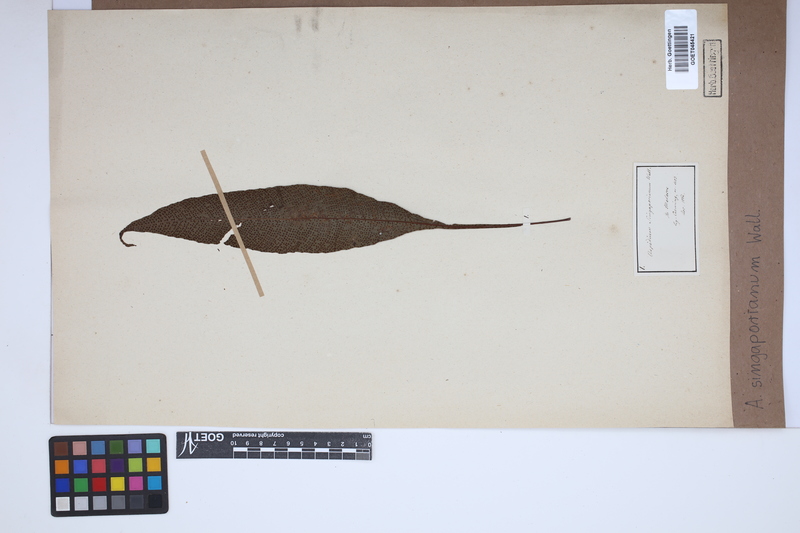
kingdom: Plantae
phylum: Tracheophyta
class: Polypodiopsida
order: Polypodiales
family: Tectariaceae
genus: Tectaria
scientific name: Tectaria singaporiana
